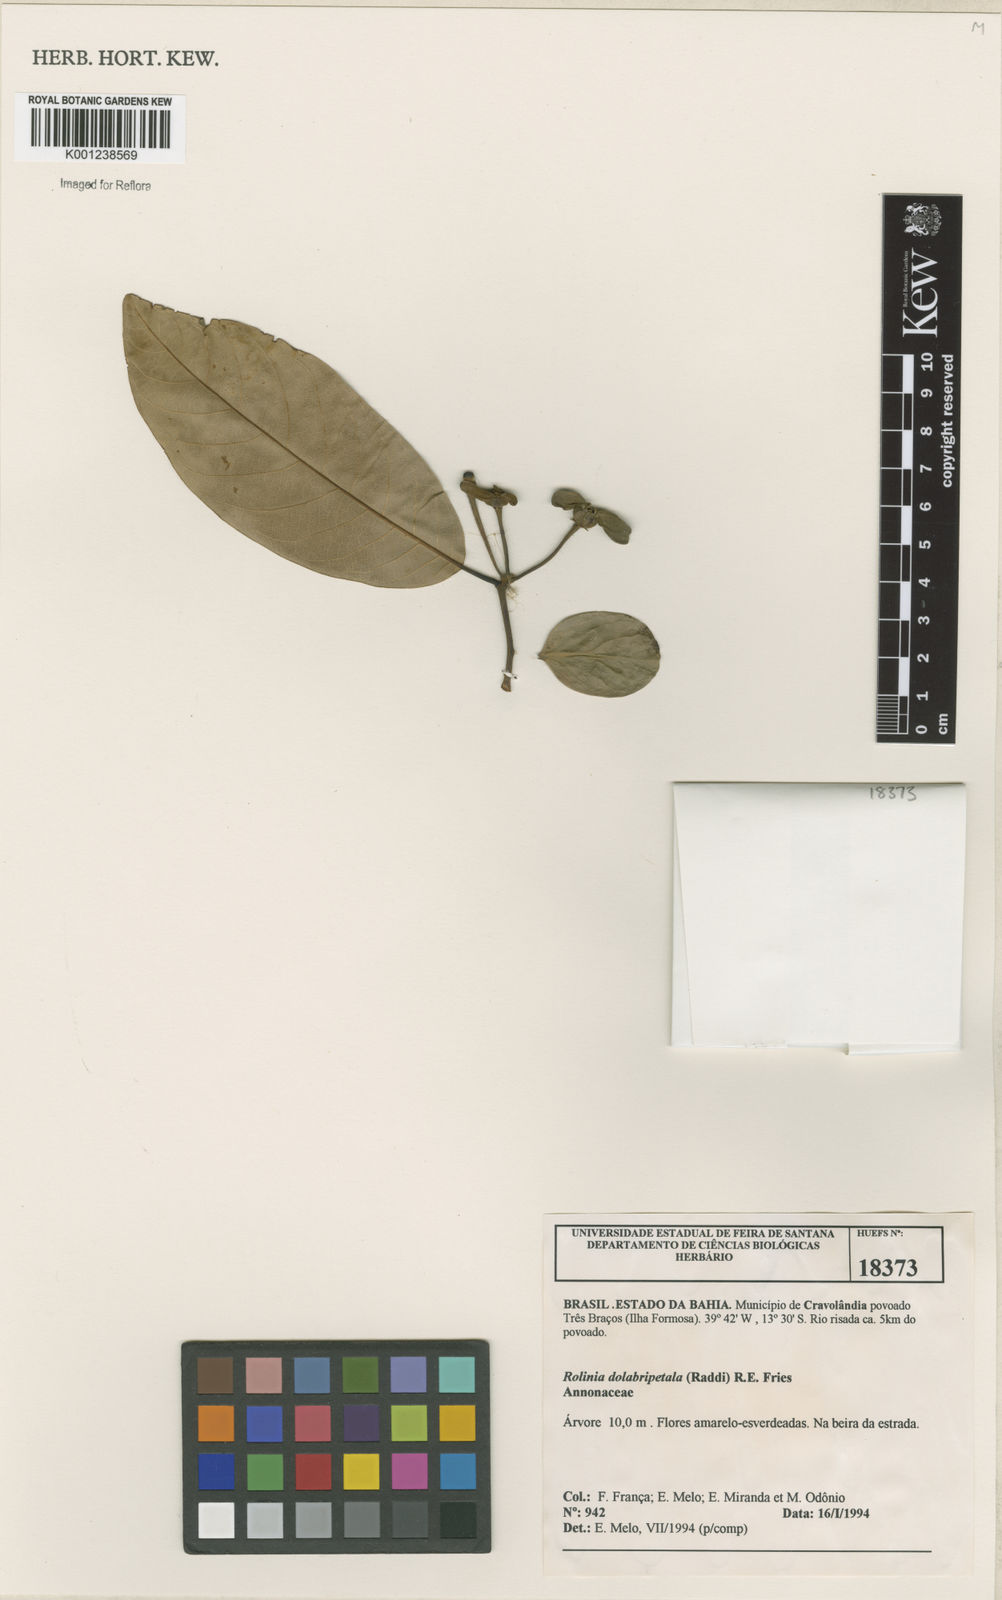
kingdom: Plantae
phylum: Tracheophyta
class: Magnoliopsida
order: Magnoliales
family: Annonaceae
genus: Annona
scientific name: Annona dolabripetala
